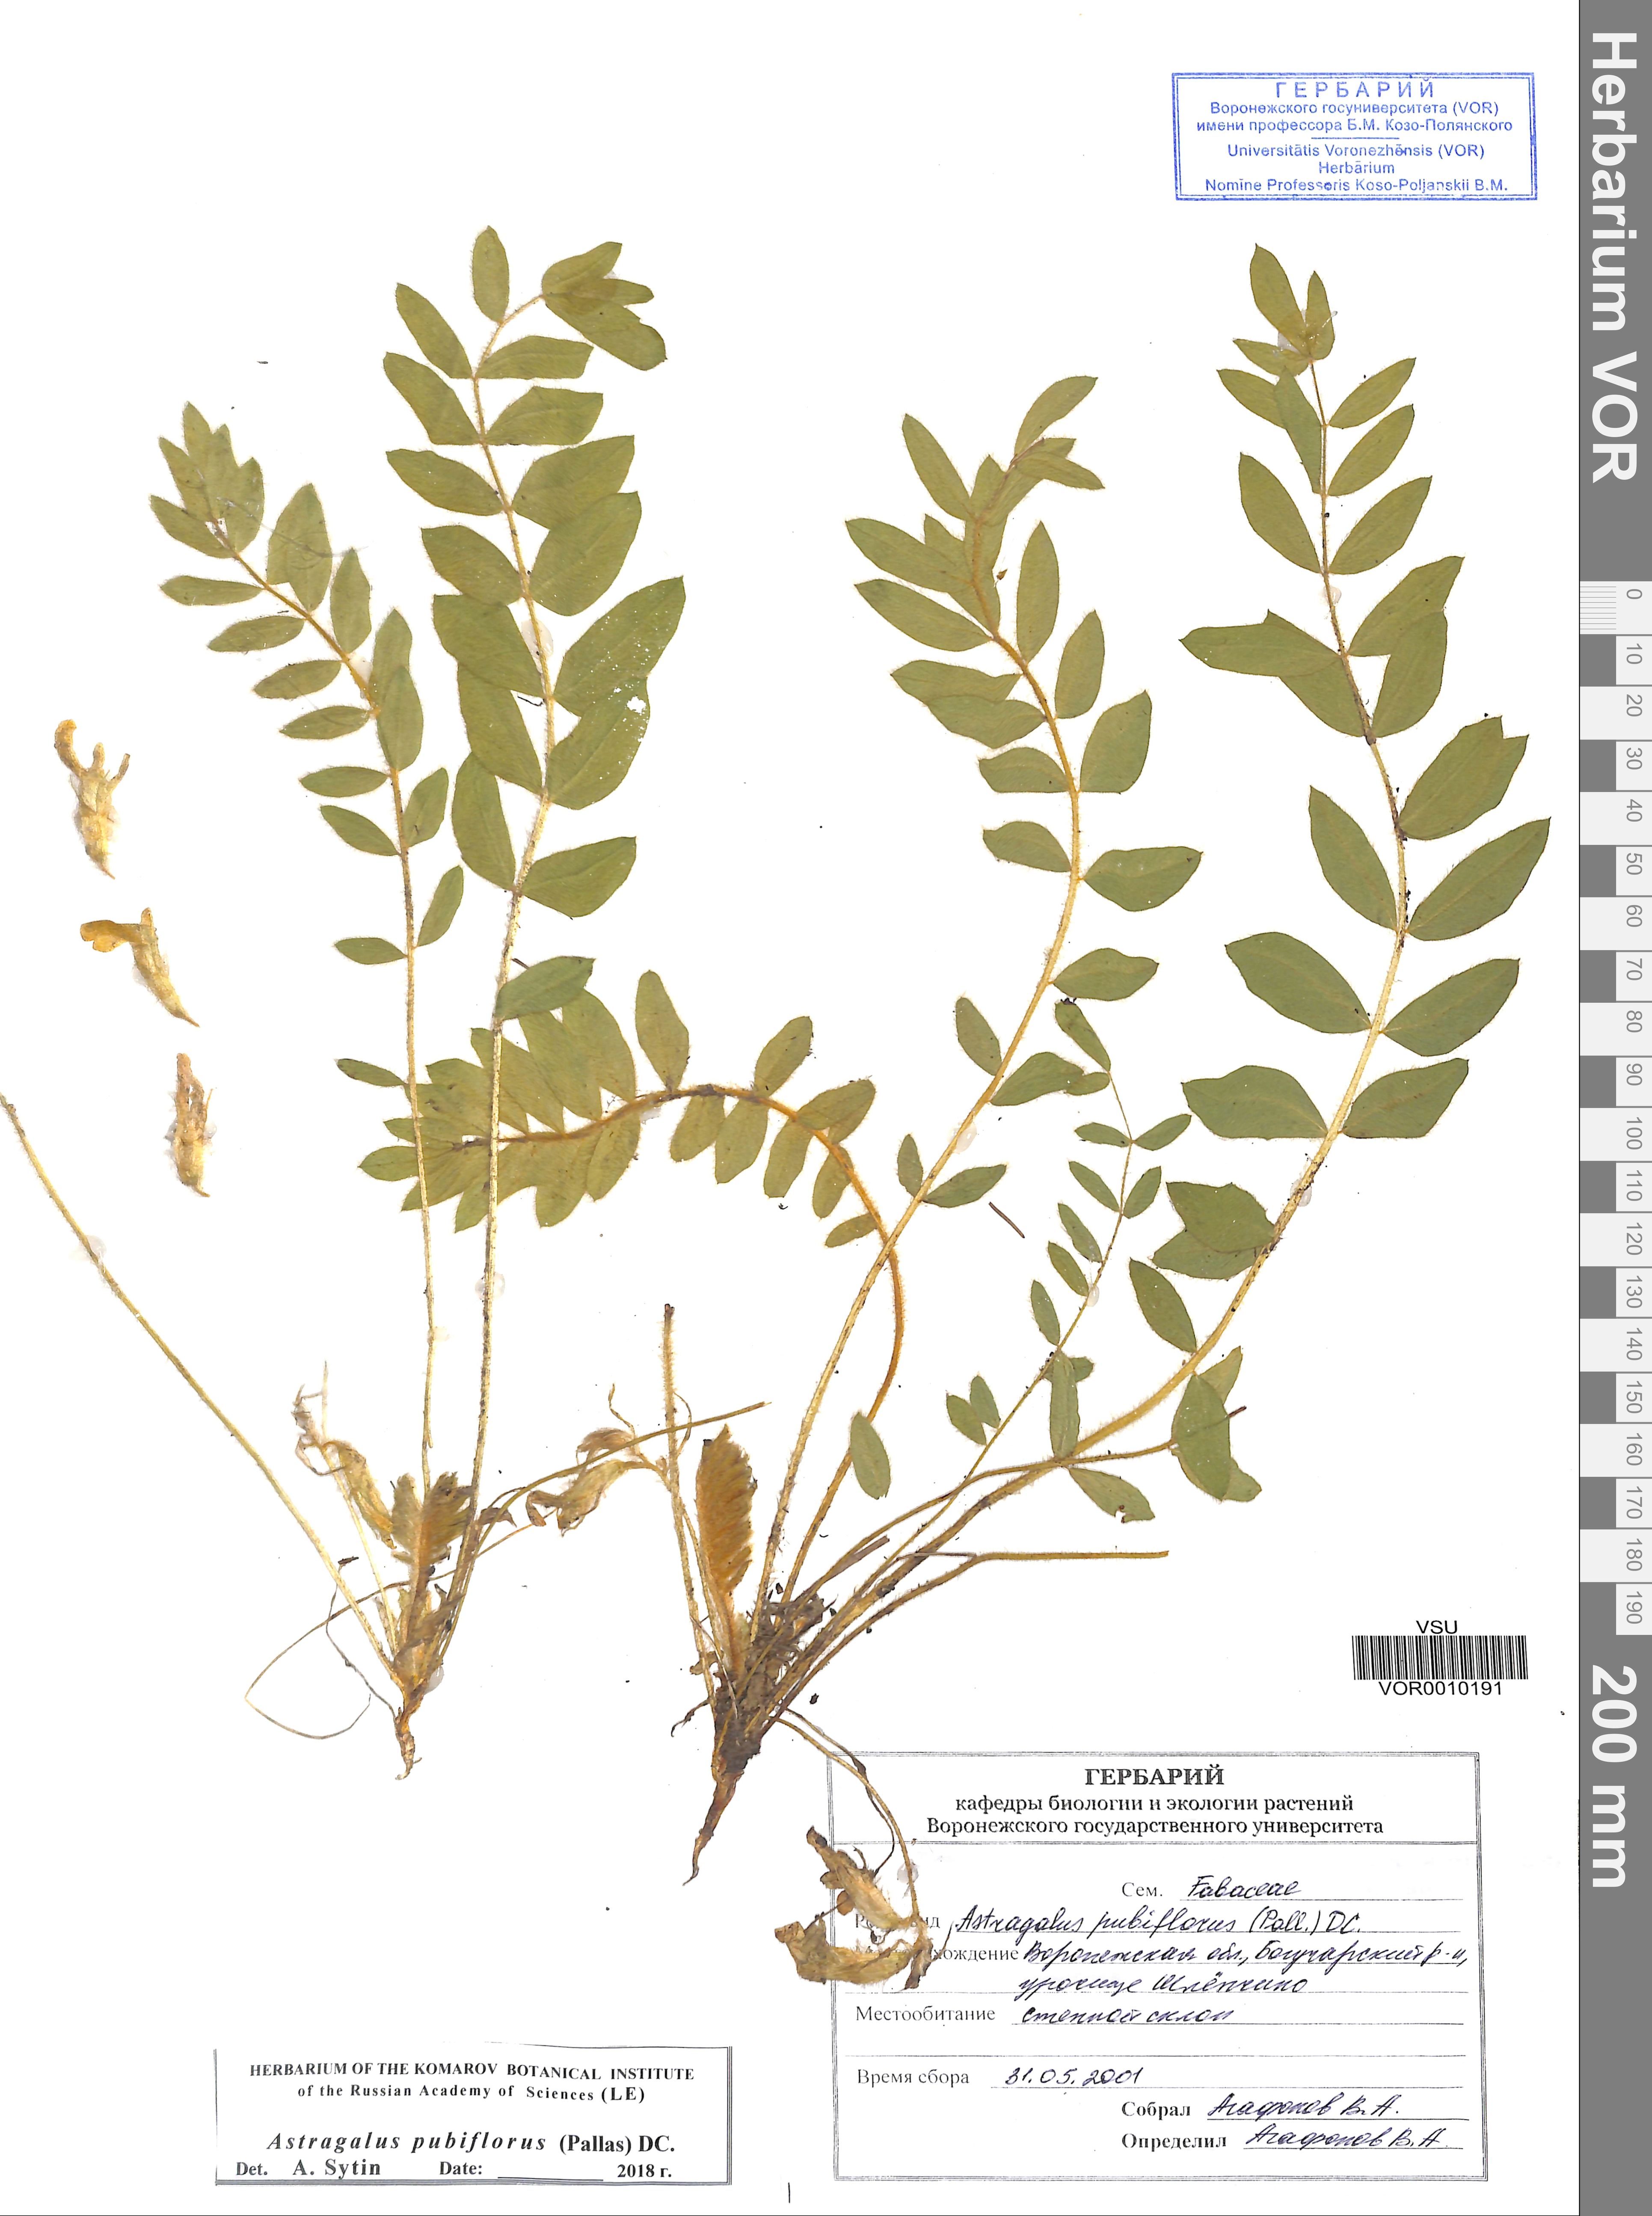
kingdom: Plantae
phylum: Tracheophyta
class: Magnoliopsida
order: Fabales
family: Fabaceae
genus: Astragalus
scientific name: Astragalus exscapus
